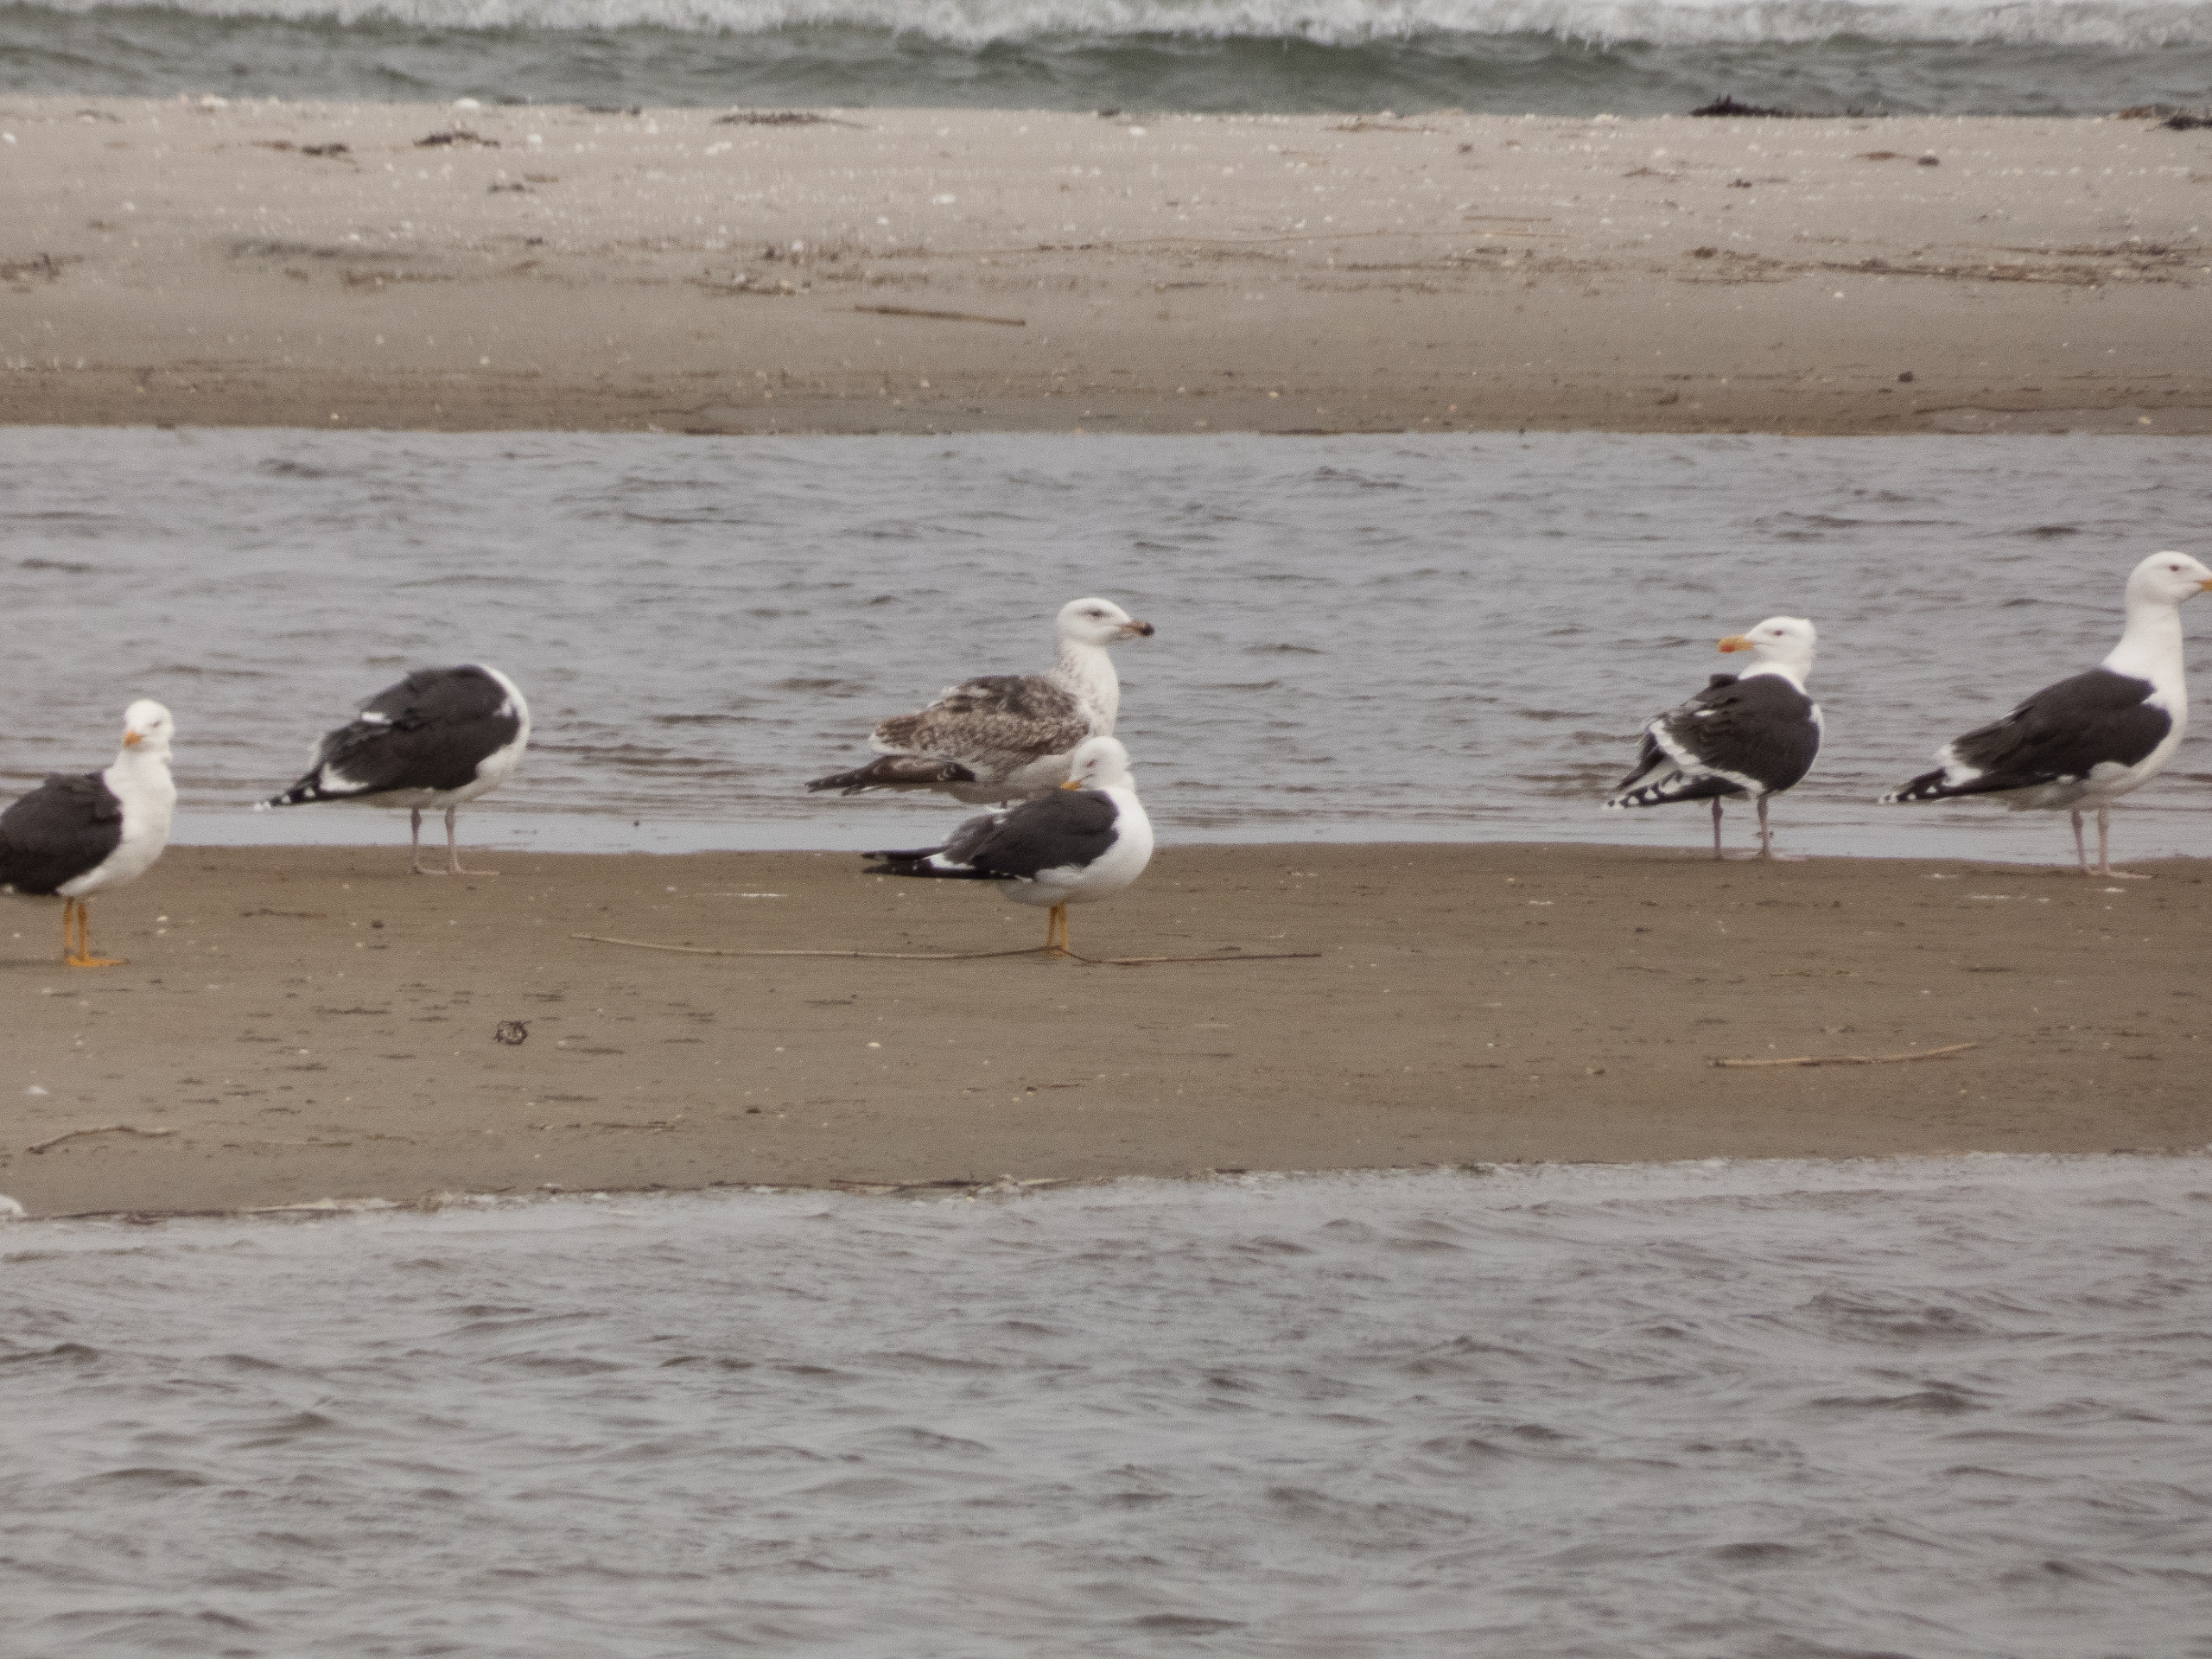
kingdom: Animalia
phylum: Chordata
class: Aves
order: Charadriiformes
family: Laridae
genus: Larus
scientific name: Larus marinus
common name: Svartbag
